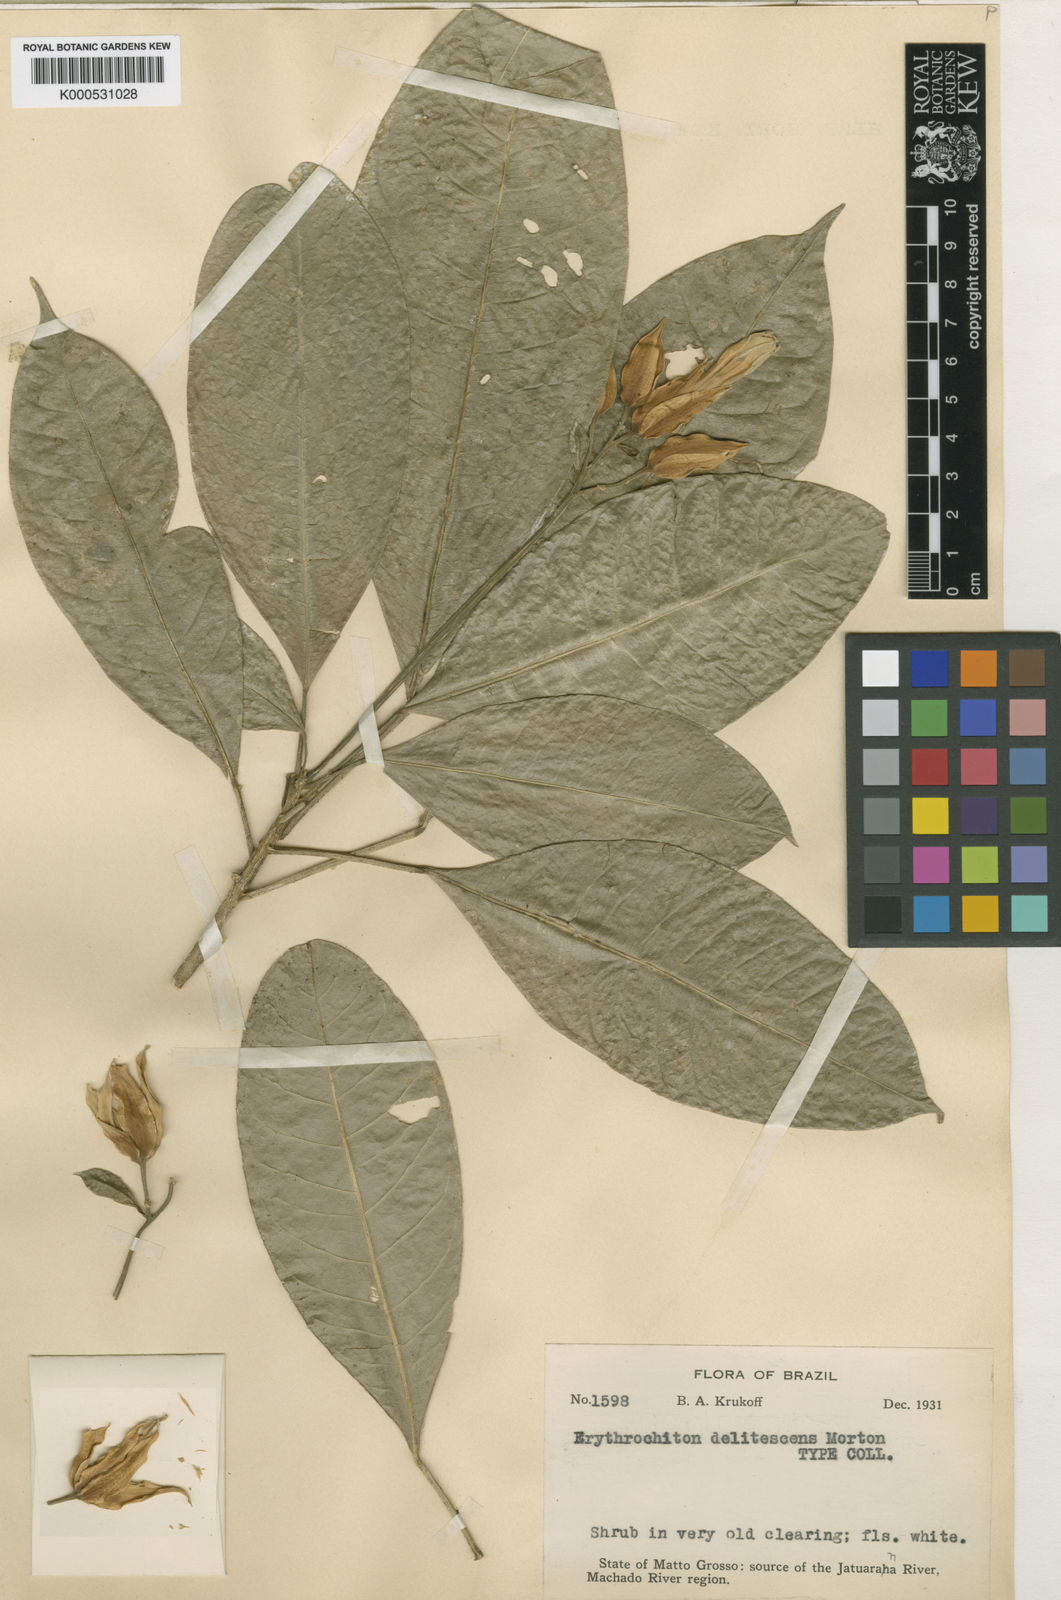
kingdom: Plantae
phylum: Tracheophyta
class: Magnoliopsida
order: Sapindales
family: Rutaceae
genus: Toxosiphon
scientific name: Toxosiphon macropodus
